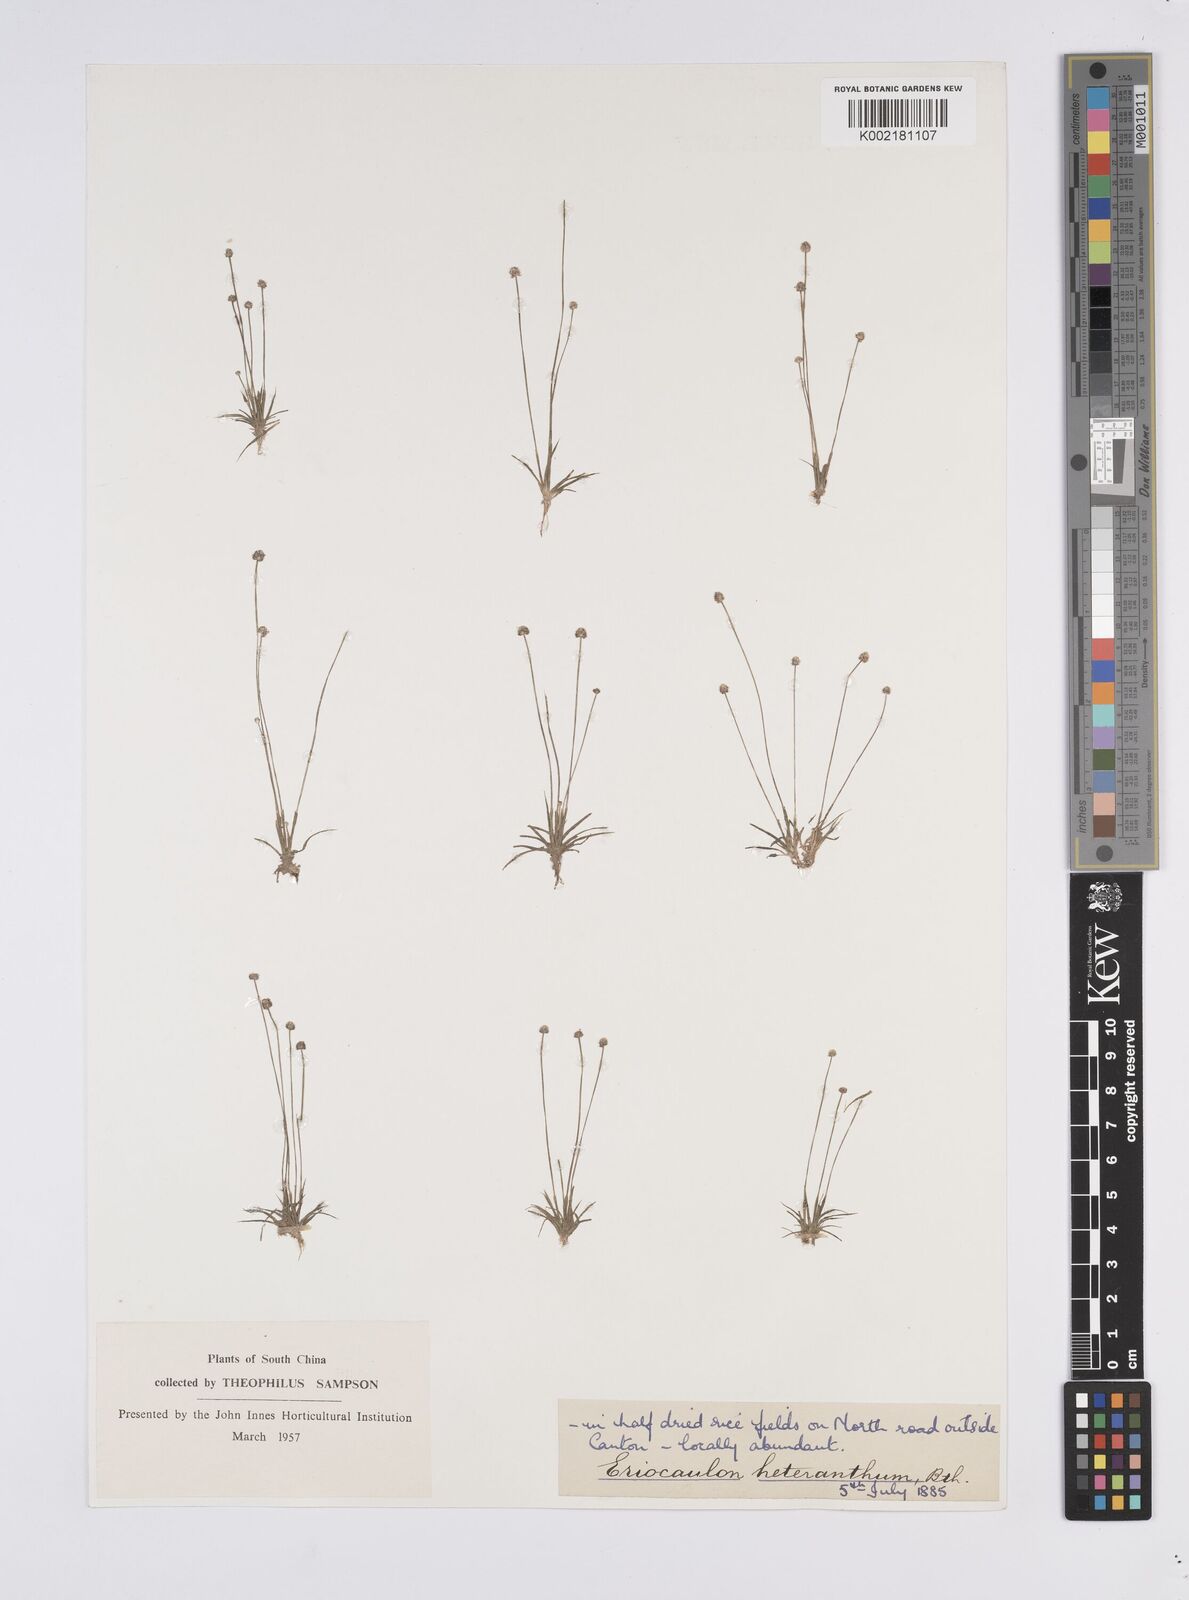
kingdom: Plantae
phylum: Tracheophyta
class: Liliopsida
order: Poales
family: Eriocaulaceae
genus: Eriocaulon
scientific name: Eriocaulon cinereum
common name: Ashy pipewort
